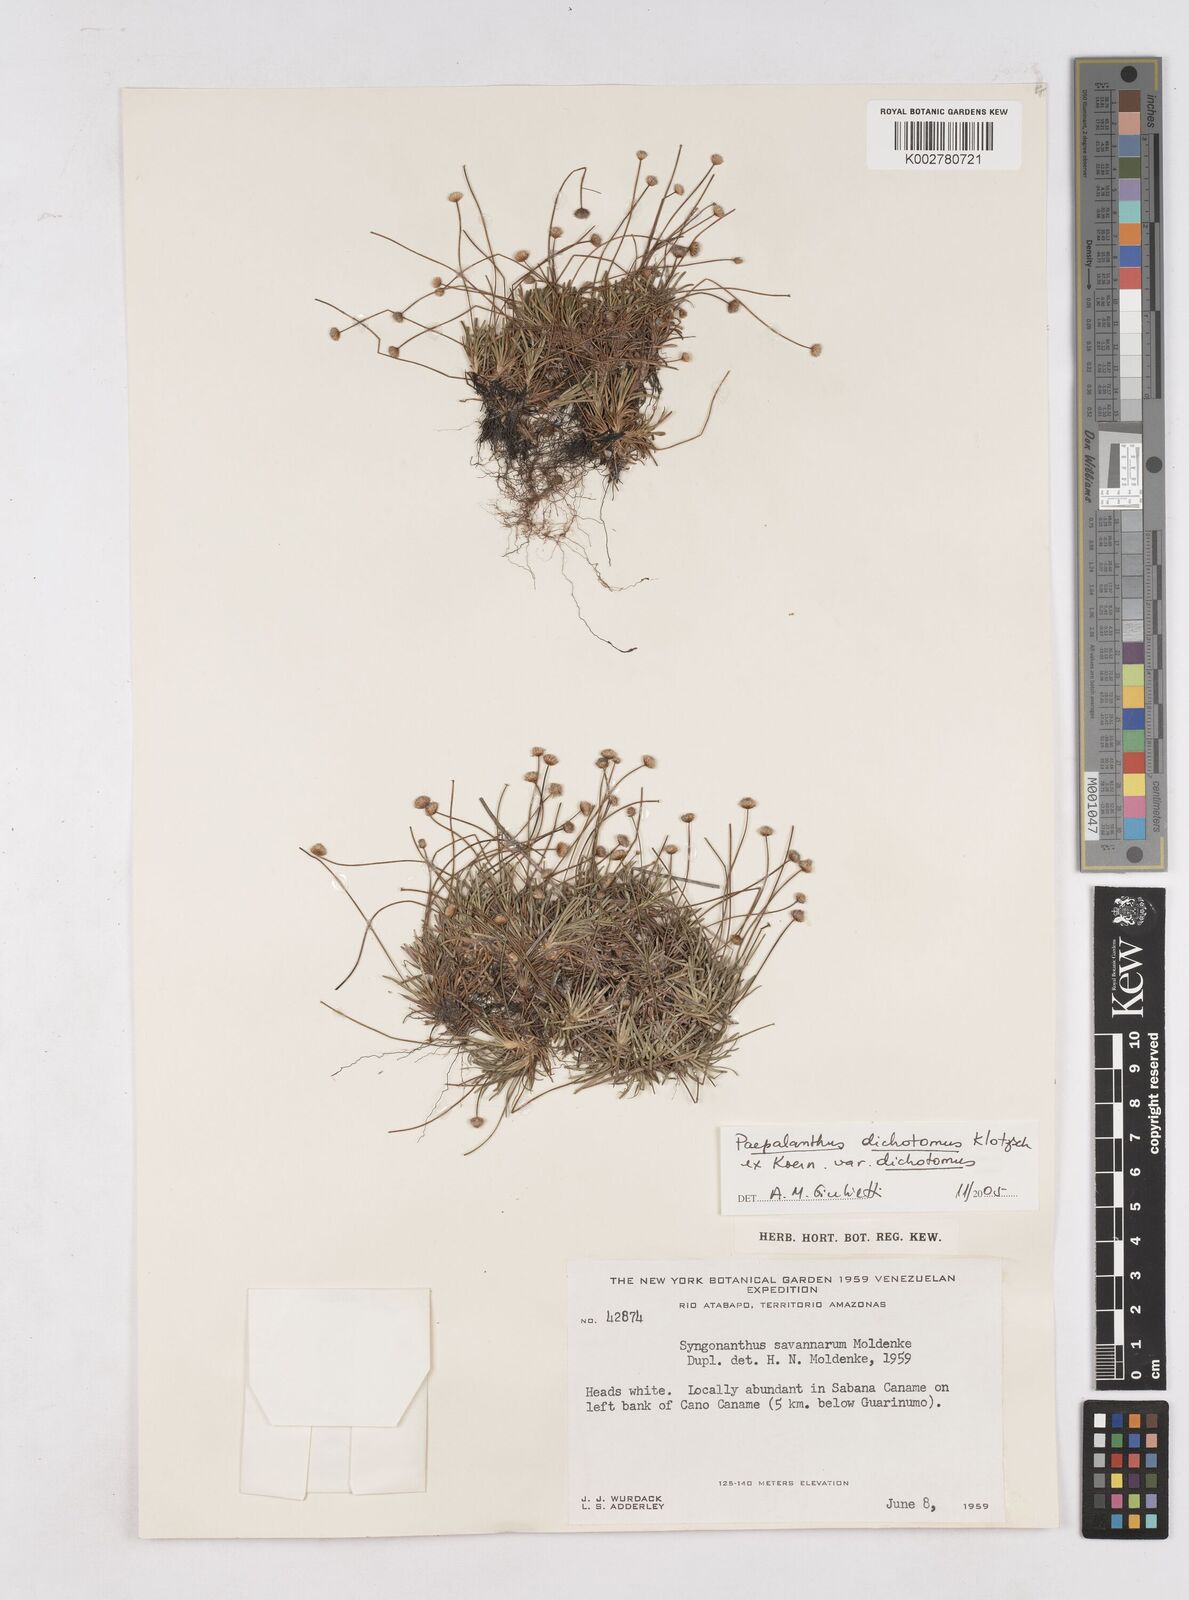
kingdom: Plantae
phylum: Tracheophyta
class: Liliopsida
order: Poales
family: Eriocaulaceae
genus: Paepalanthus
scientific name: Paepalanthus dichotomus
